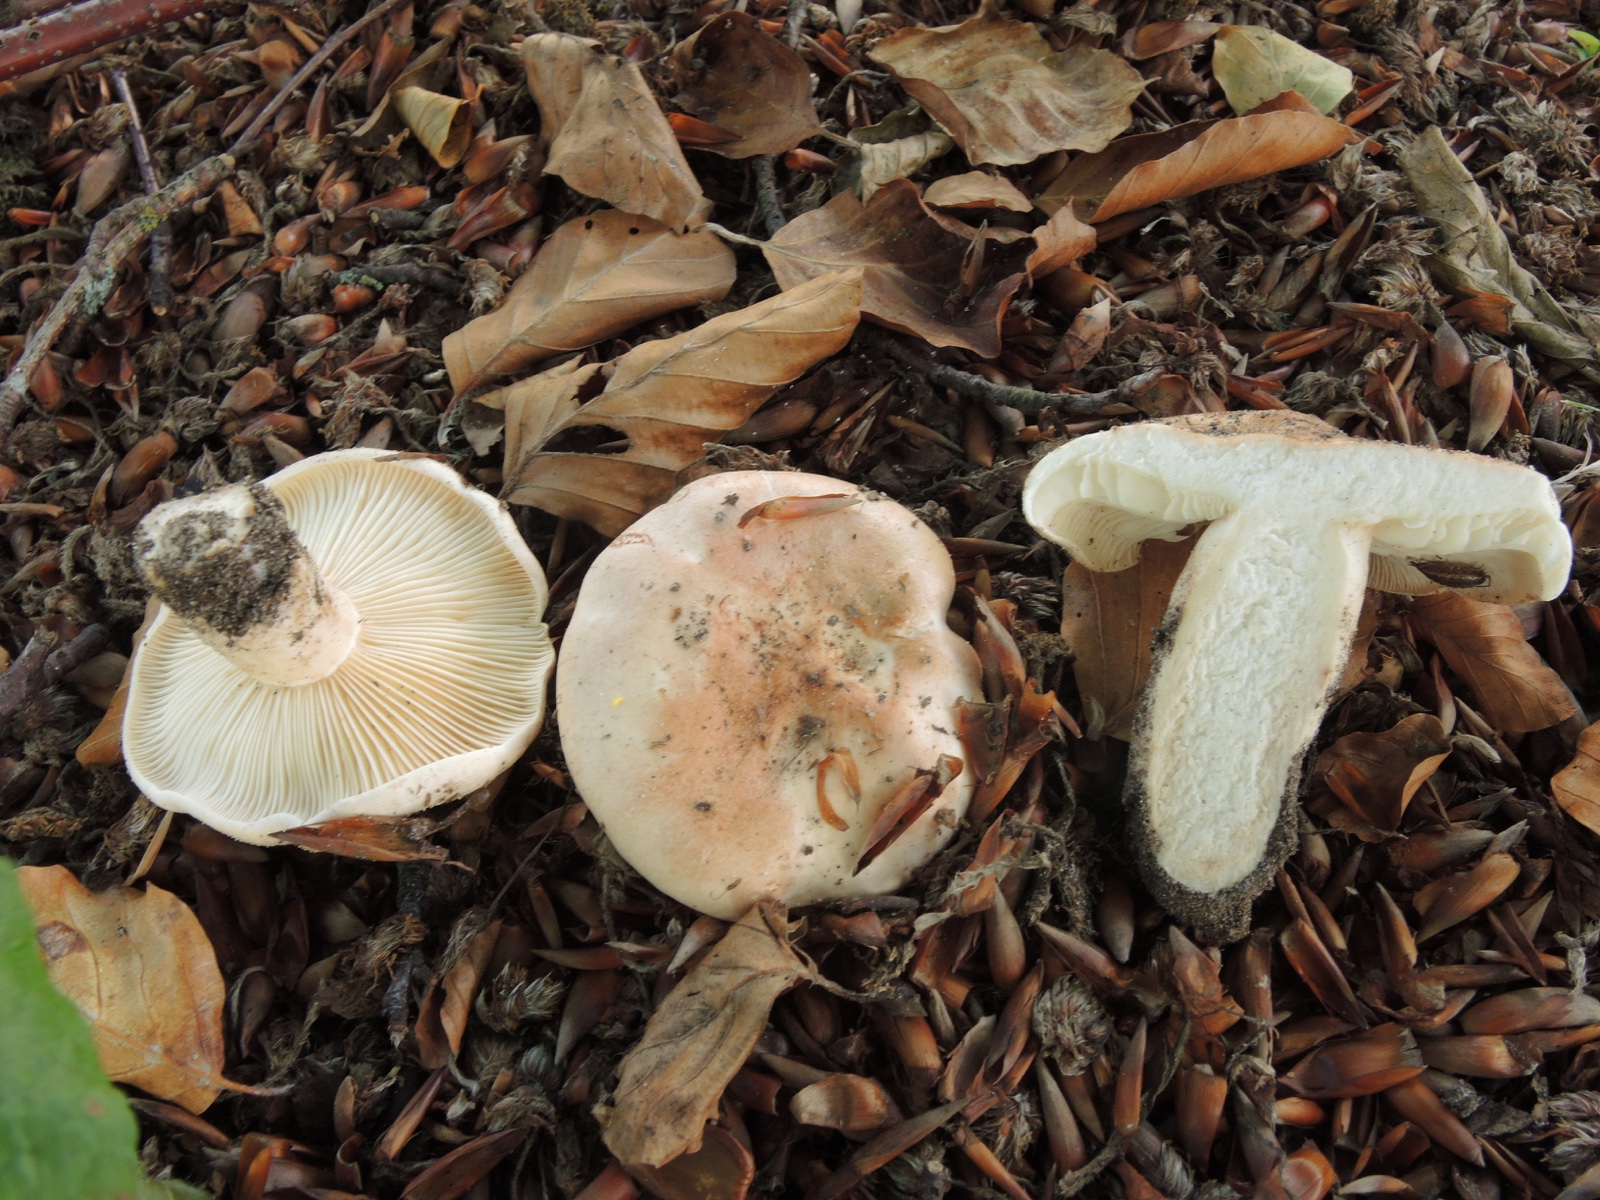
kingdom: Fungi
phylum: Basidiomycota
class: Agaricomycetes
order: Russulales
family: Russulaceae
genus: Lactarius
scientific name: Lactarius pallidus
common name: bleg mælkehat
